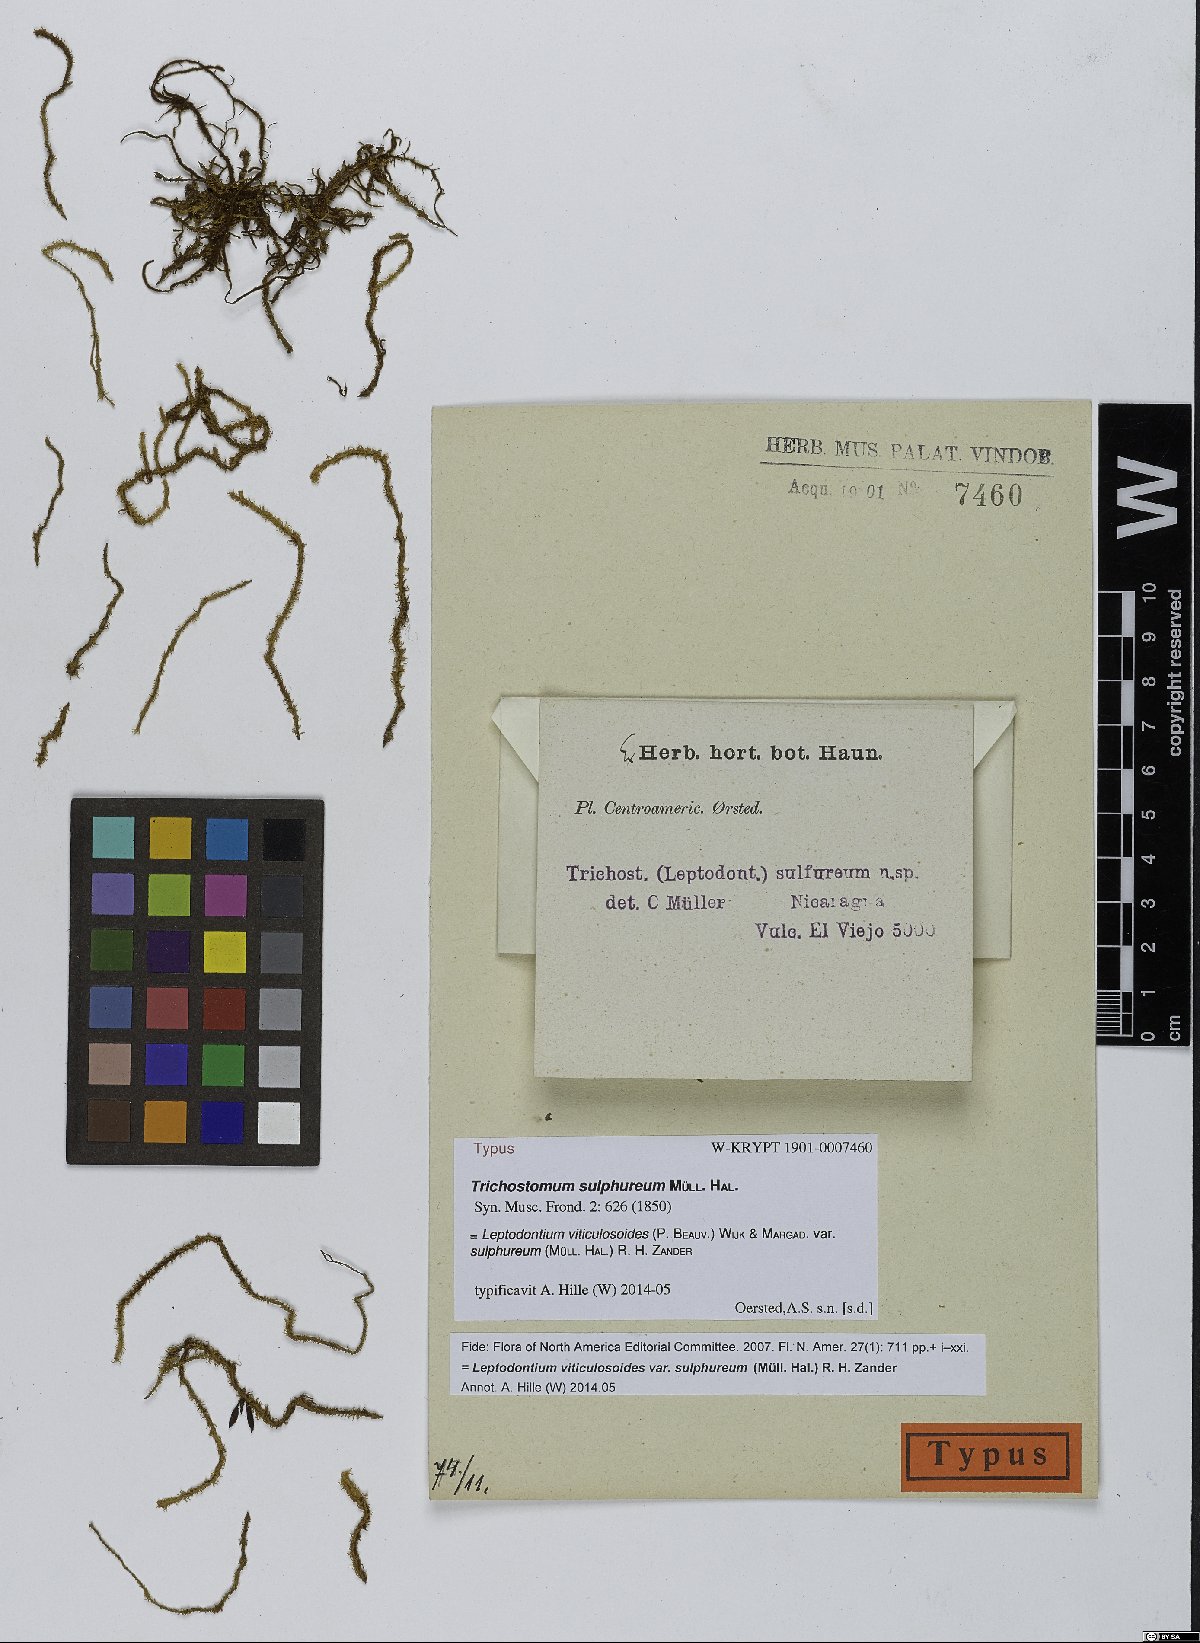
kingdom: Plantae
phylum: Bryophyta
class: Bryopsida
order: Pottiales
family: Pottiaceae
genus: Leptodontium
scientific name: Leptodontium excelsum
